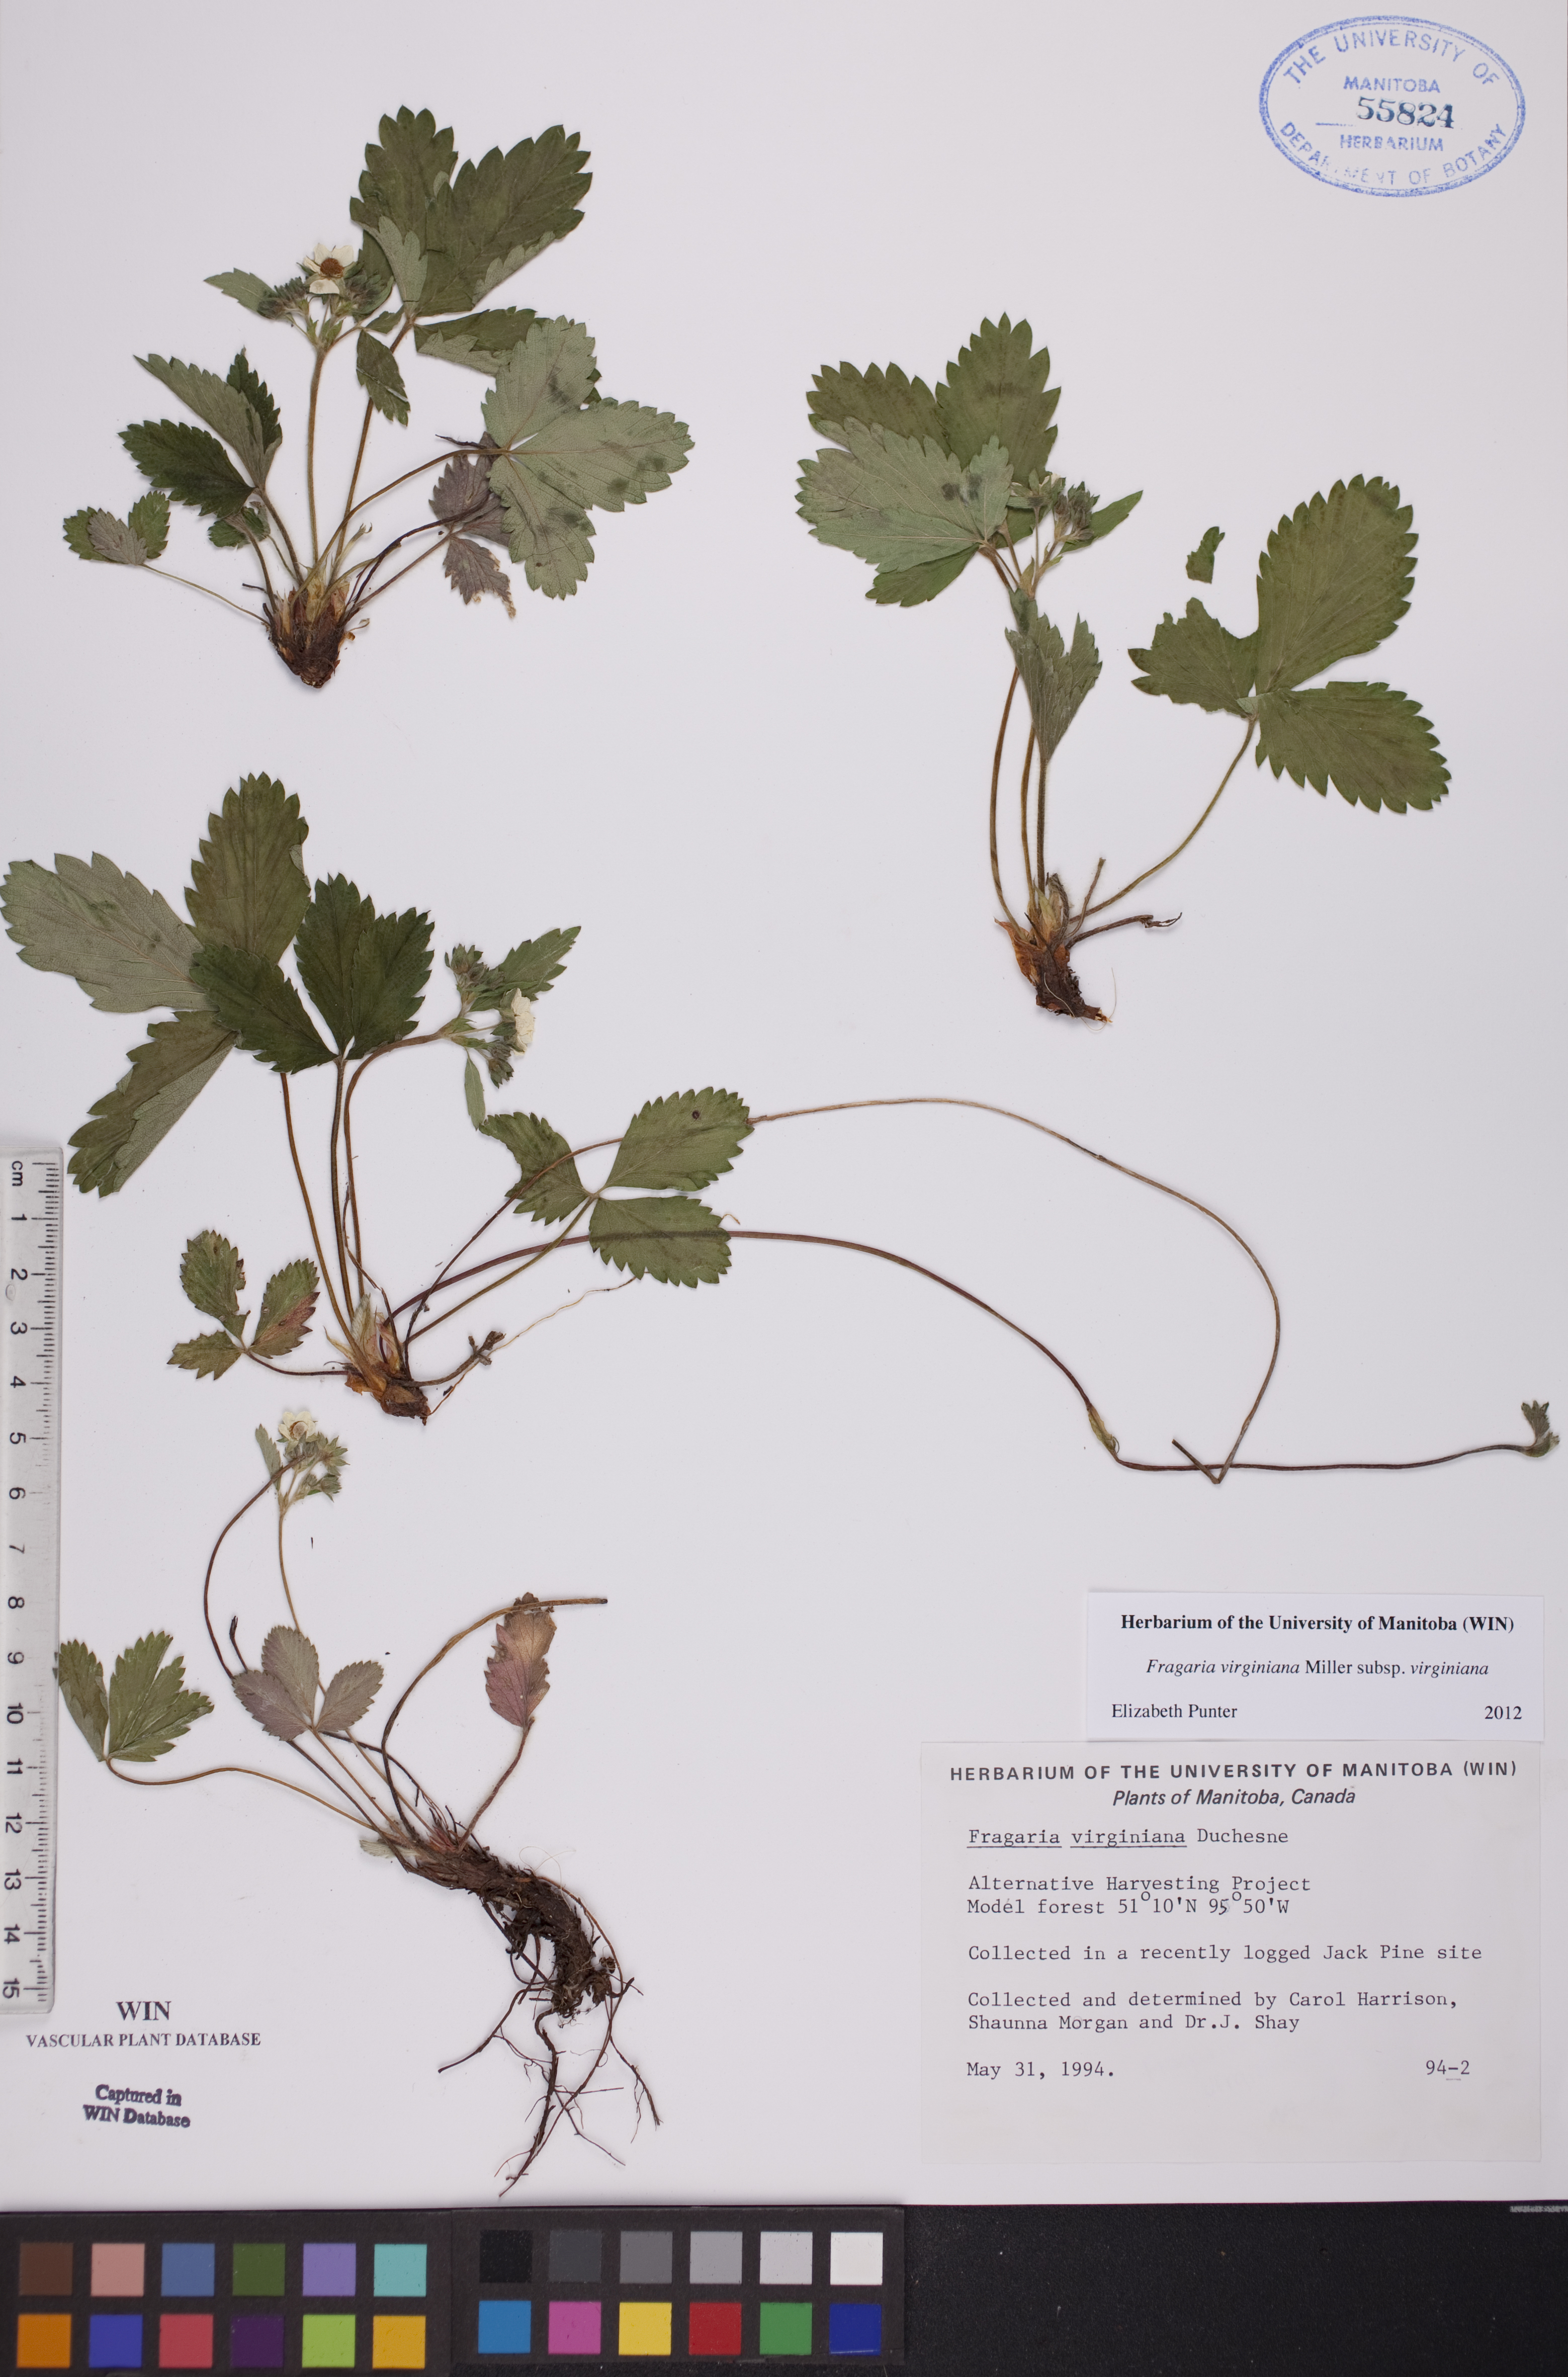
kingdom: Plantae
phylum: Tracheophyta
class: Magnoliopsida
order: Rosales
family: Rosaceae
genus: Fragaria
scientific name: Fragaria virginiana
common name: Thickleaved wild strawberry
